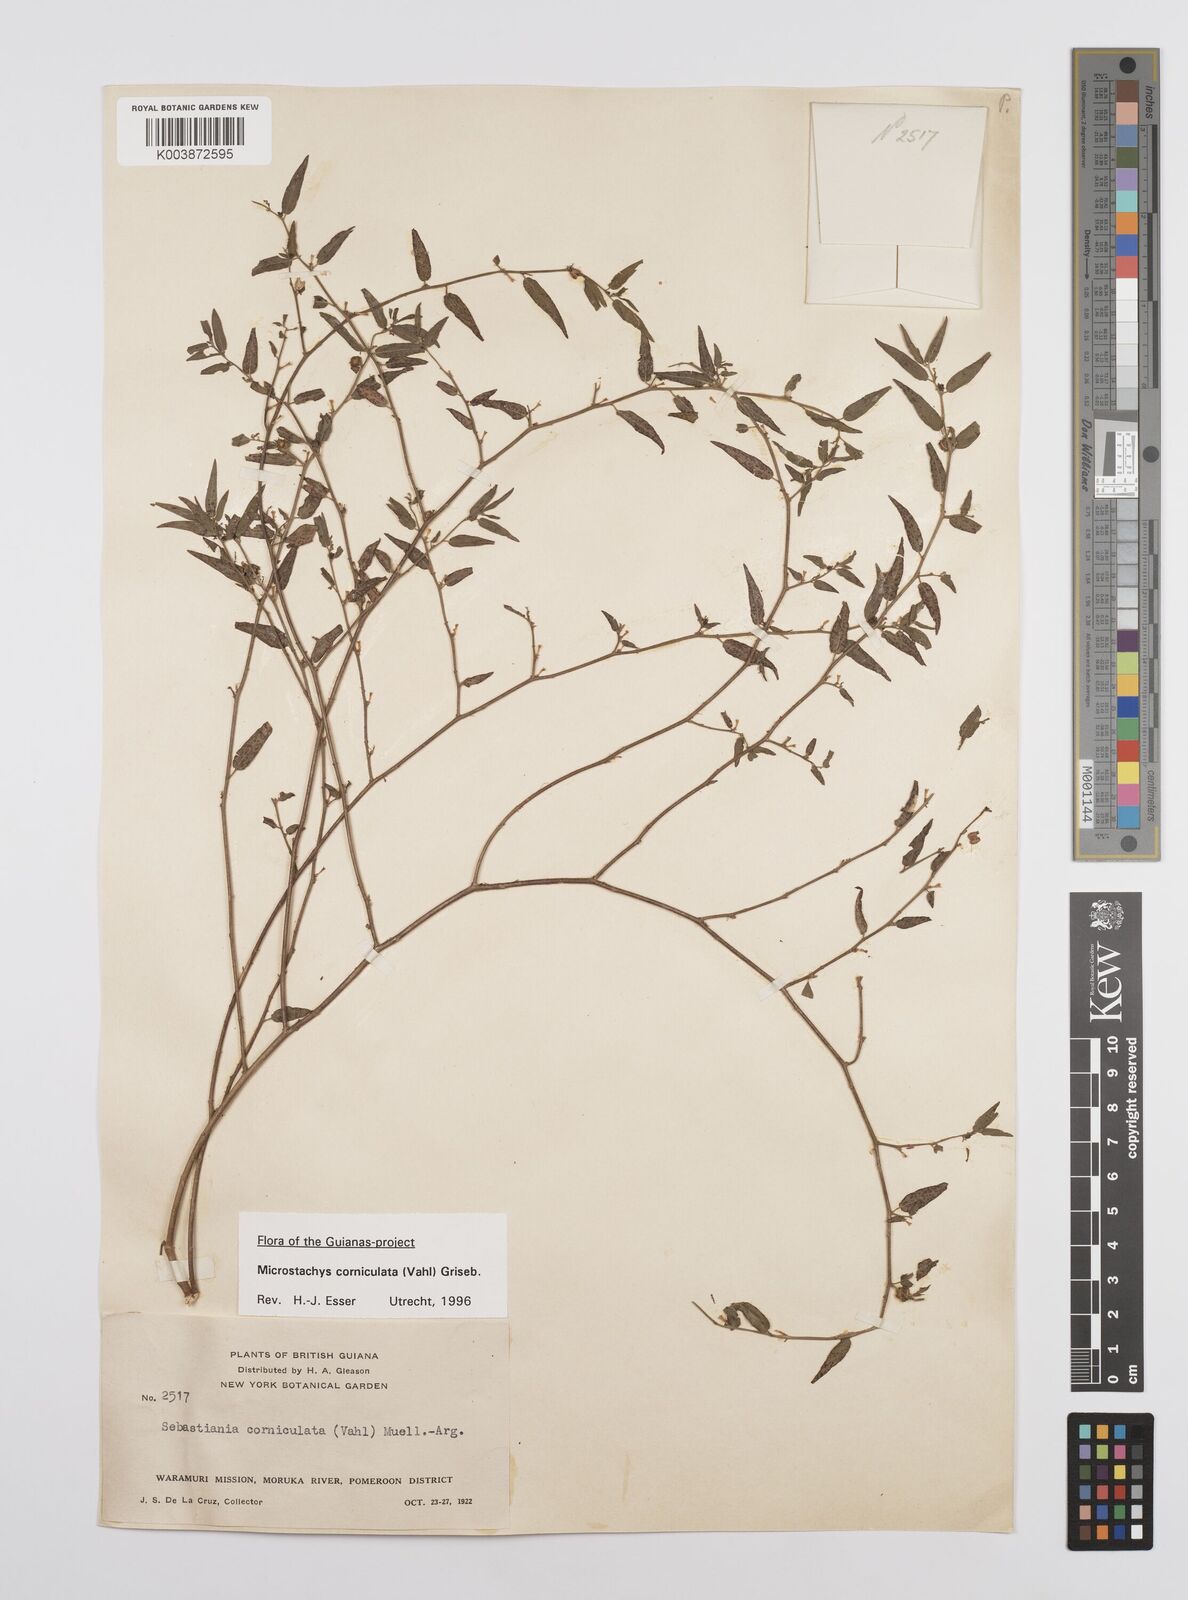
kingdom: Plantae
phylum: Tracheophyta
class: Magnoliopsida
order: Malpighiales
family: Euphorbiaceae
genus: Microstachys
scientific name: Microstachys corniculata
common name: Hato tejas
